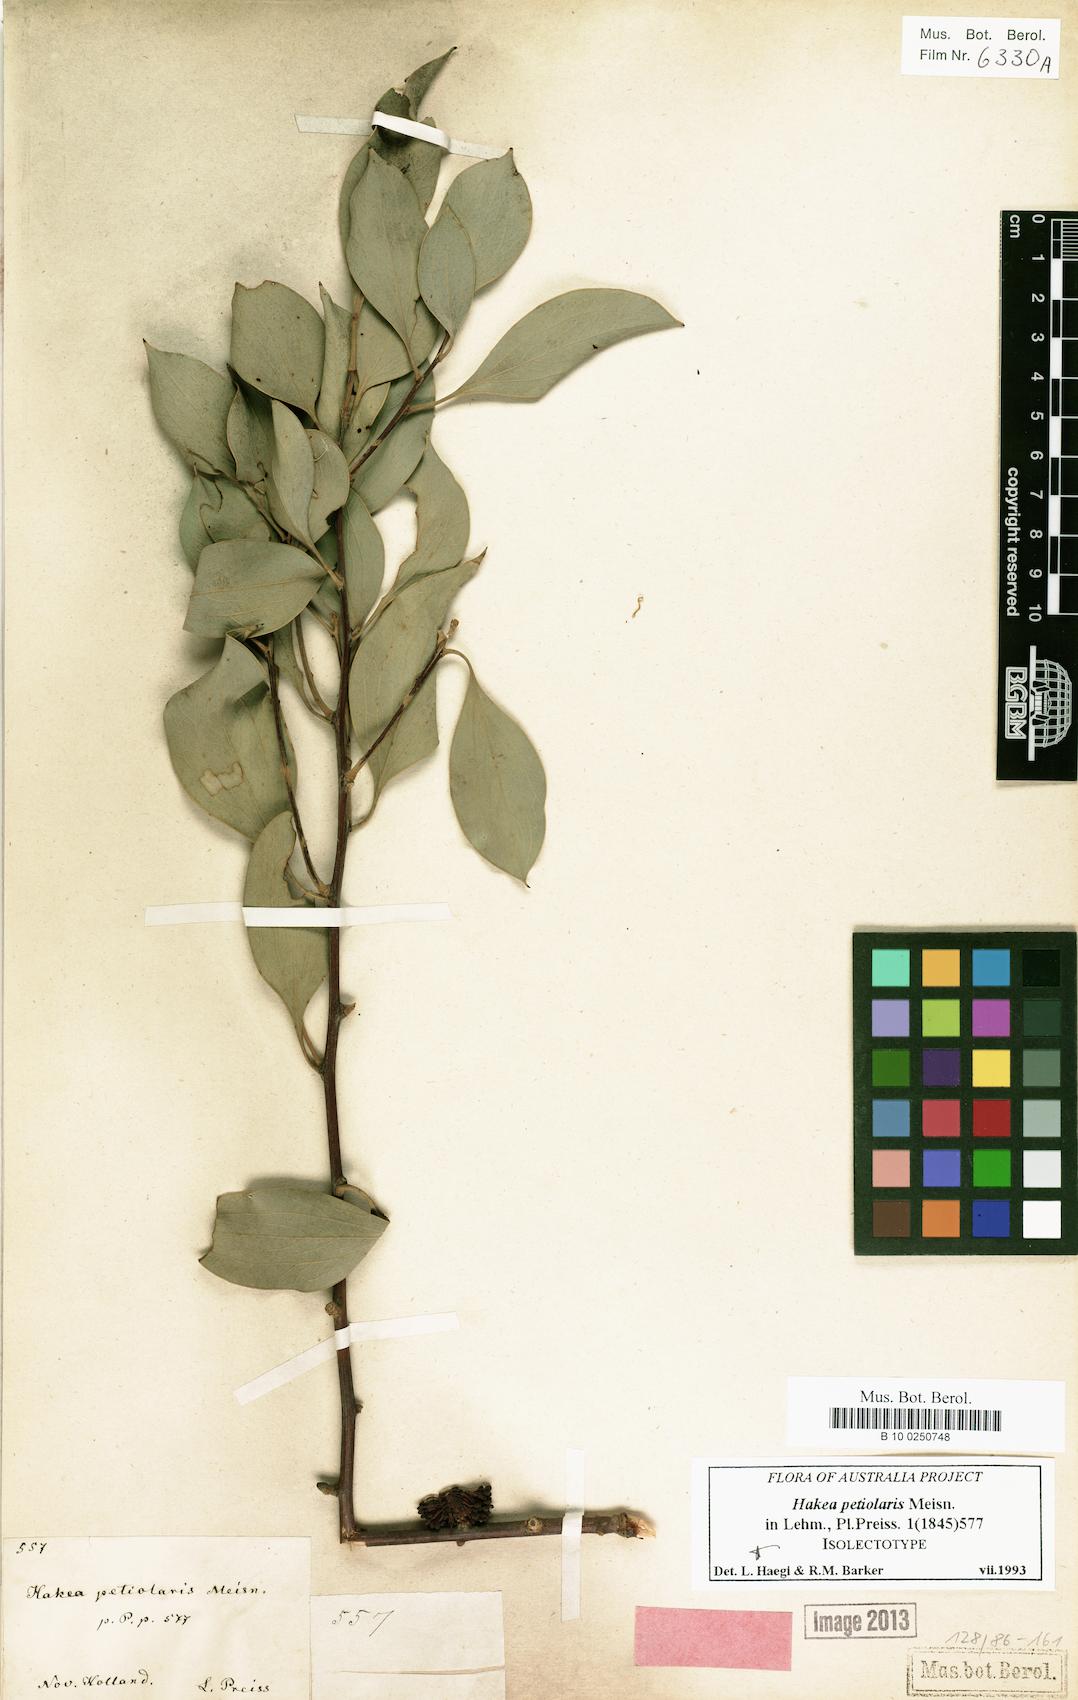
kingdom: Plantae
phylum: Tracheophyta
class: Magnoliopsida
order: Proteales
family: Proteaceae
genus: Hakea
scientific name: Hakea petiolaris
